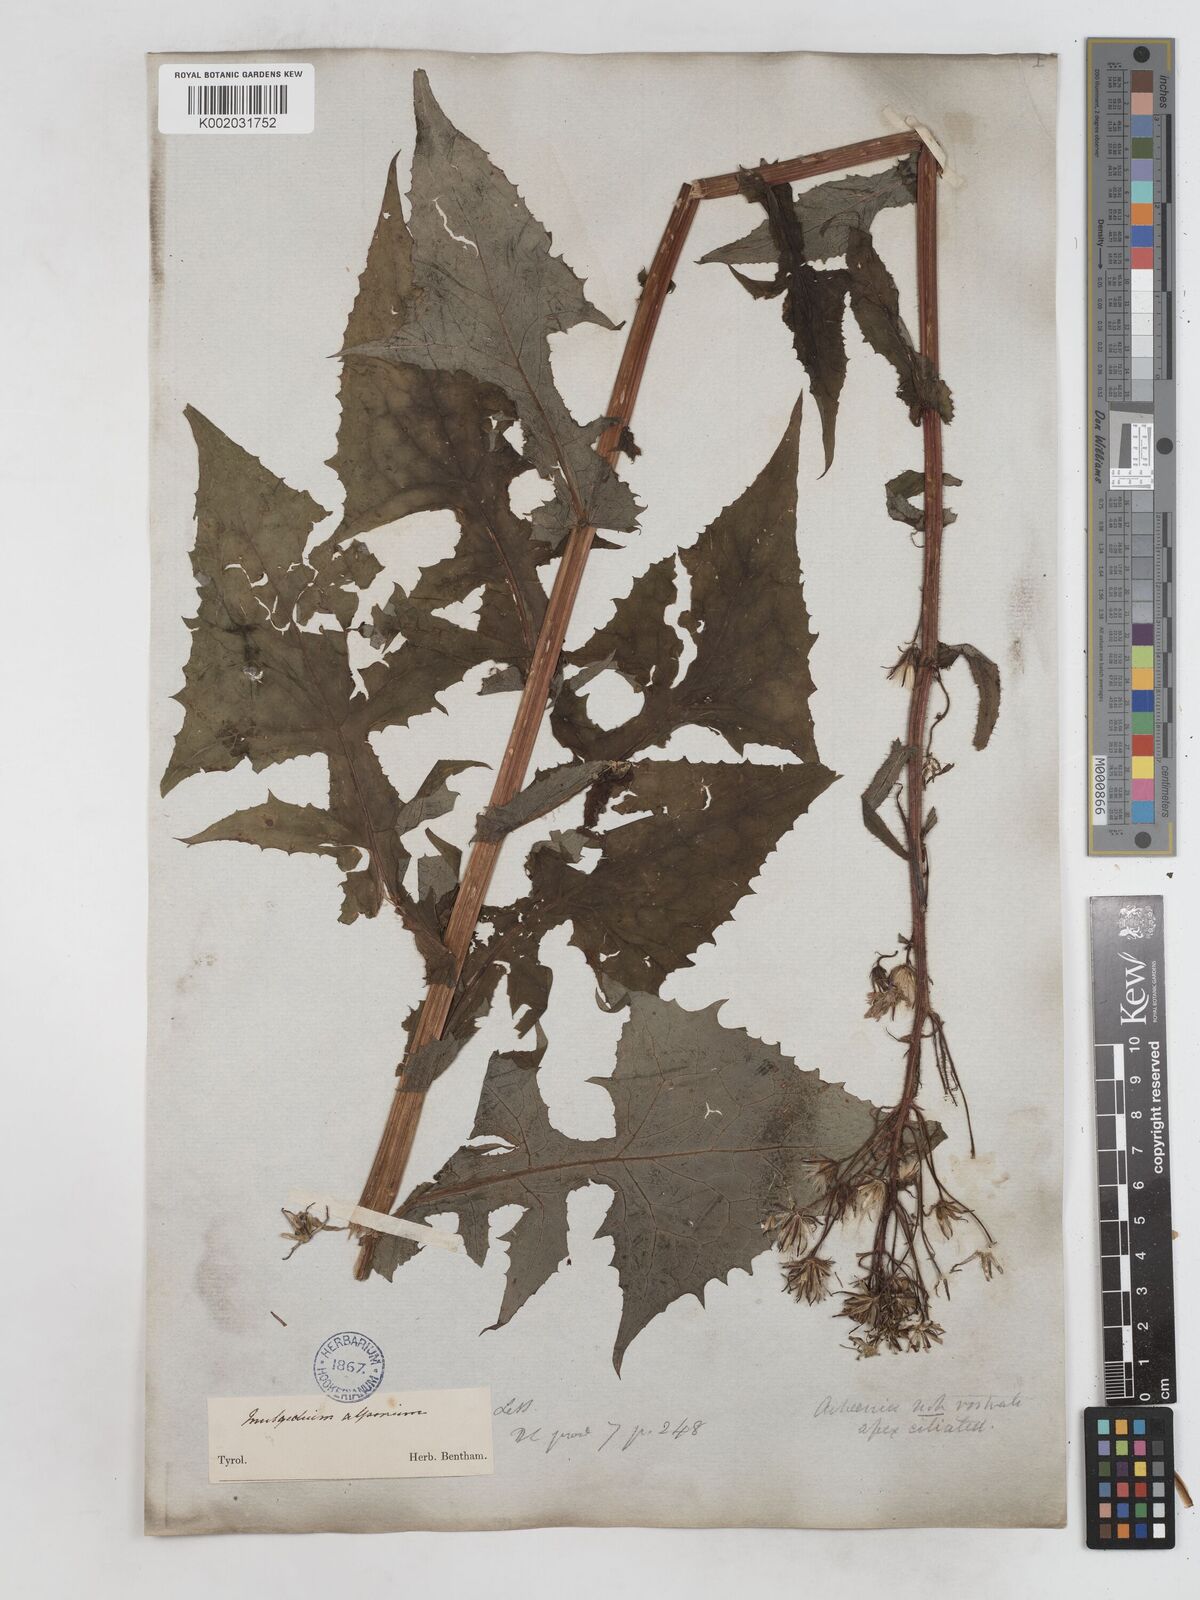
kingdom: Plantae
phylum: Tracheophyta
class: Magnoliopsida
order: Asterales
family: Asteraceae
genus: Cicerbita
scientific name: Cicerbita alpina
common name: Alpine blue-sow-thistle
